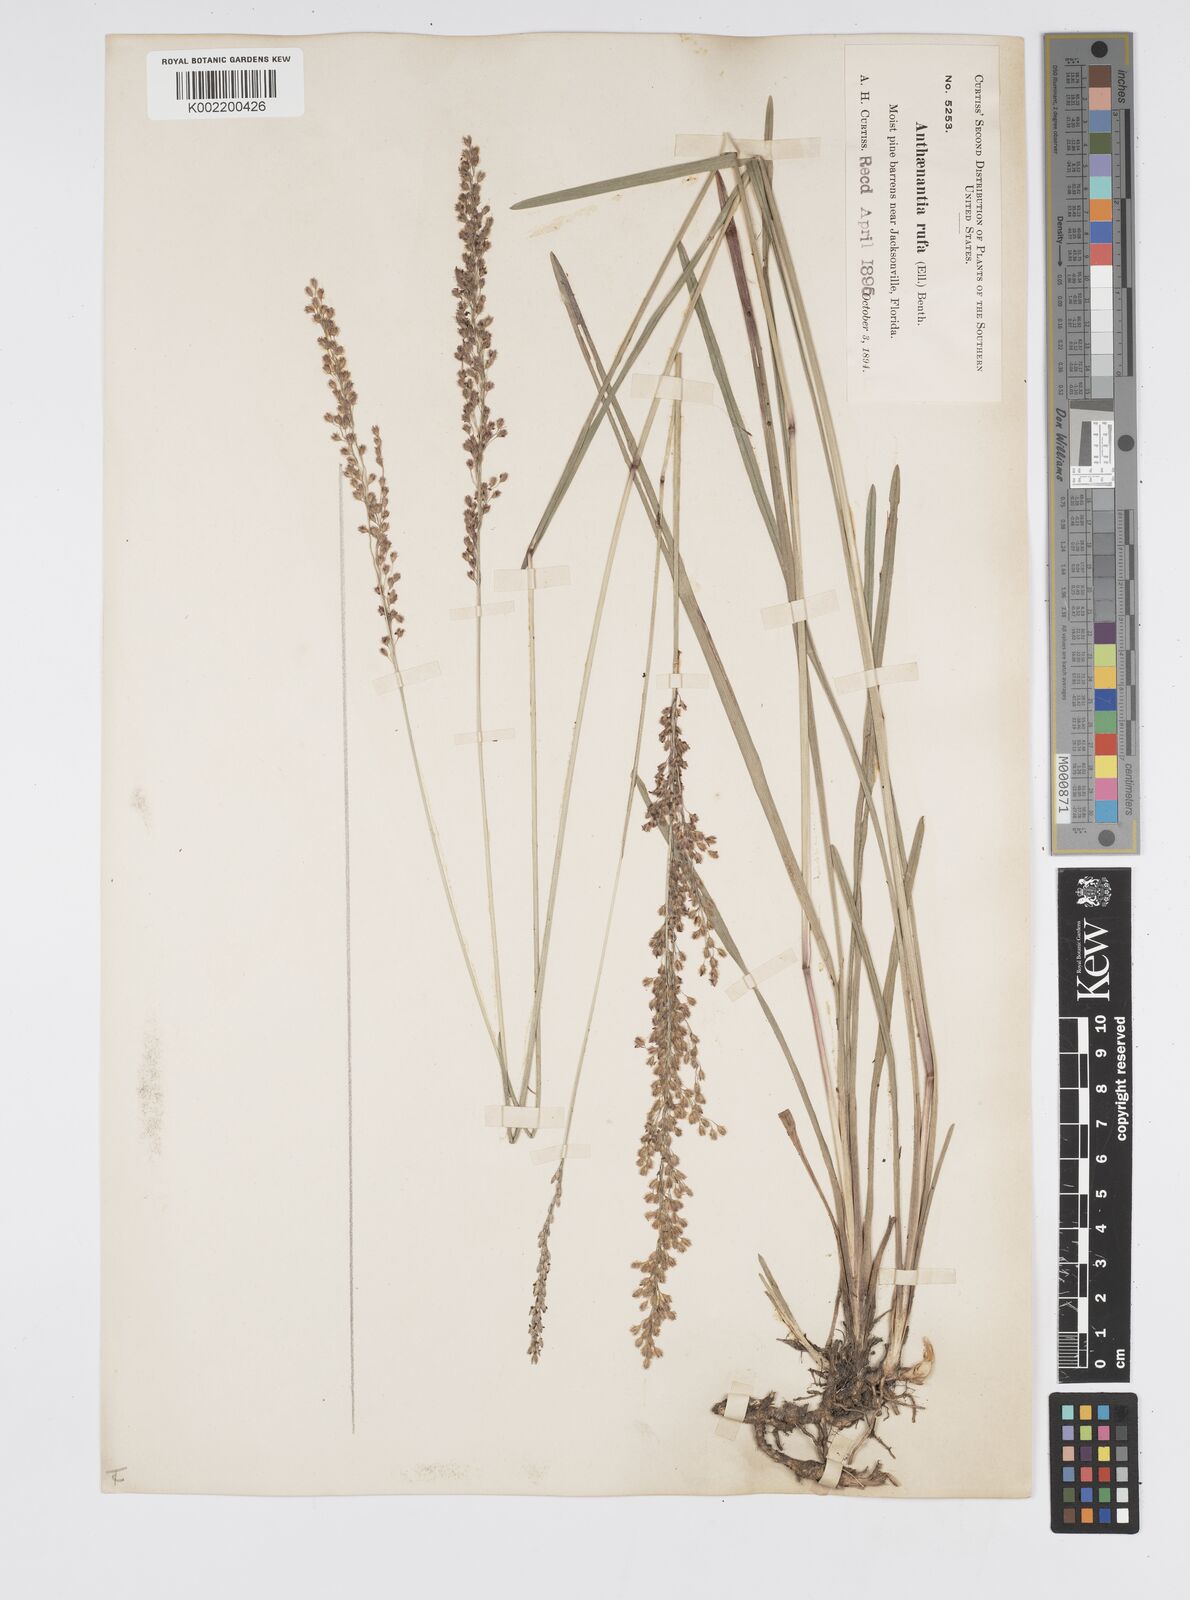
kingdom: Plantae
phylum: Tracheophyta
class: Liliopsida
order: Poales
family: Poaceae
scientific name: Poaceae
